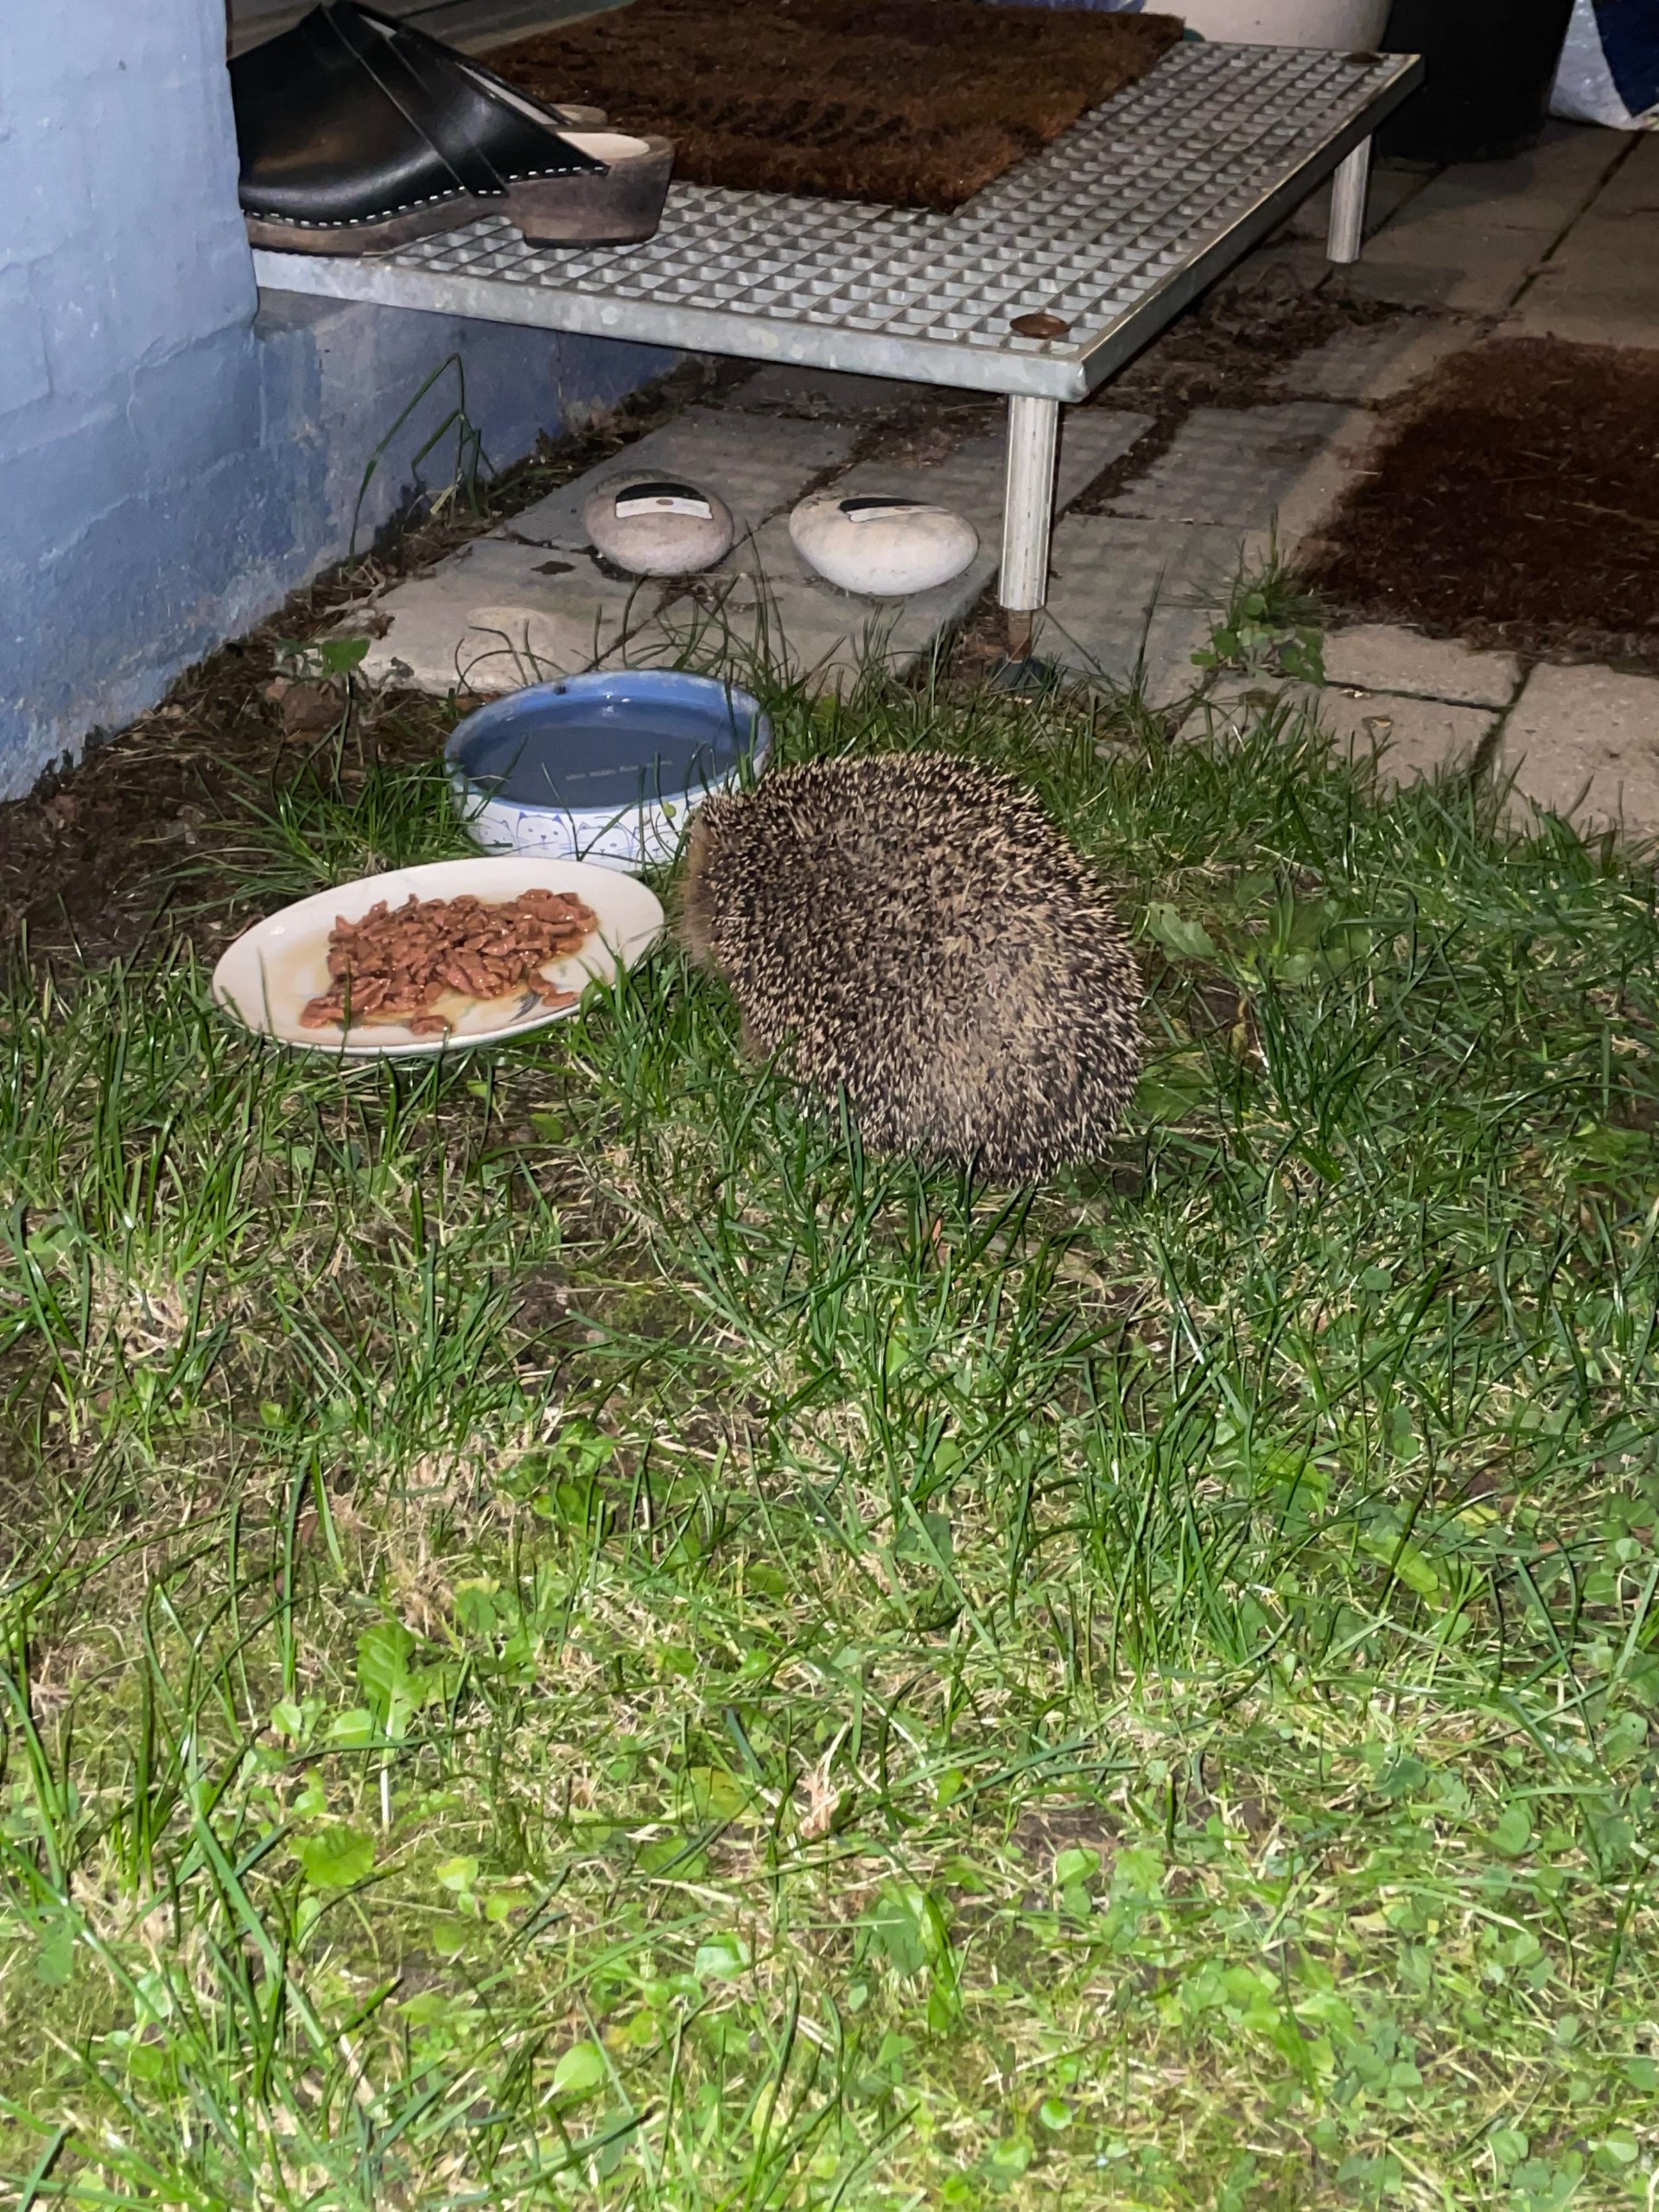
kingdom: Animalia
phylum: Chordata
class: Mammalia
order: Erinaceomorpha
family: Erinaceidae
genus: Erinaceus
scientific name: Erinaceus europaeus
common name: Pindsvin
